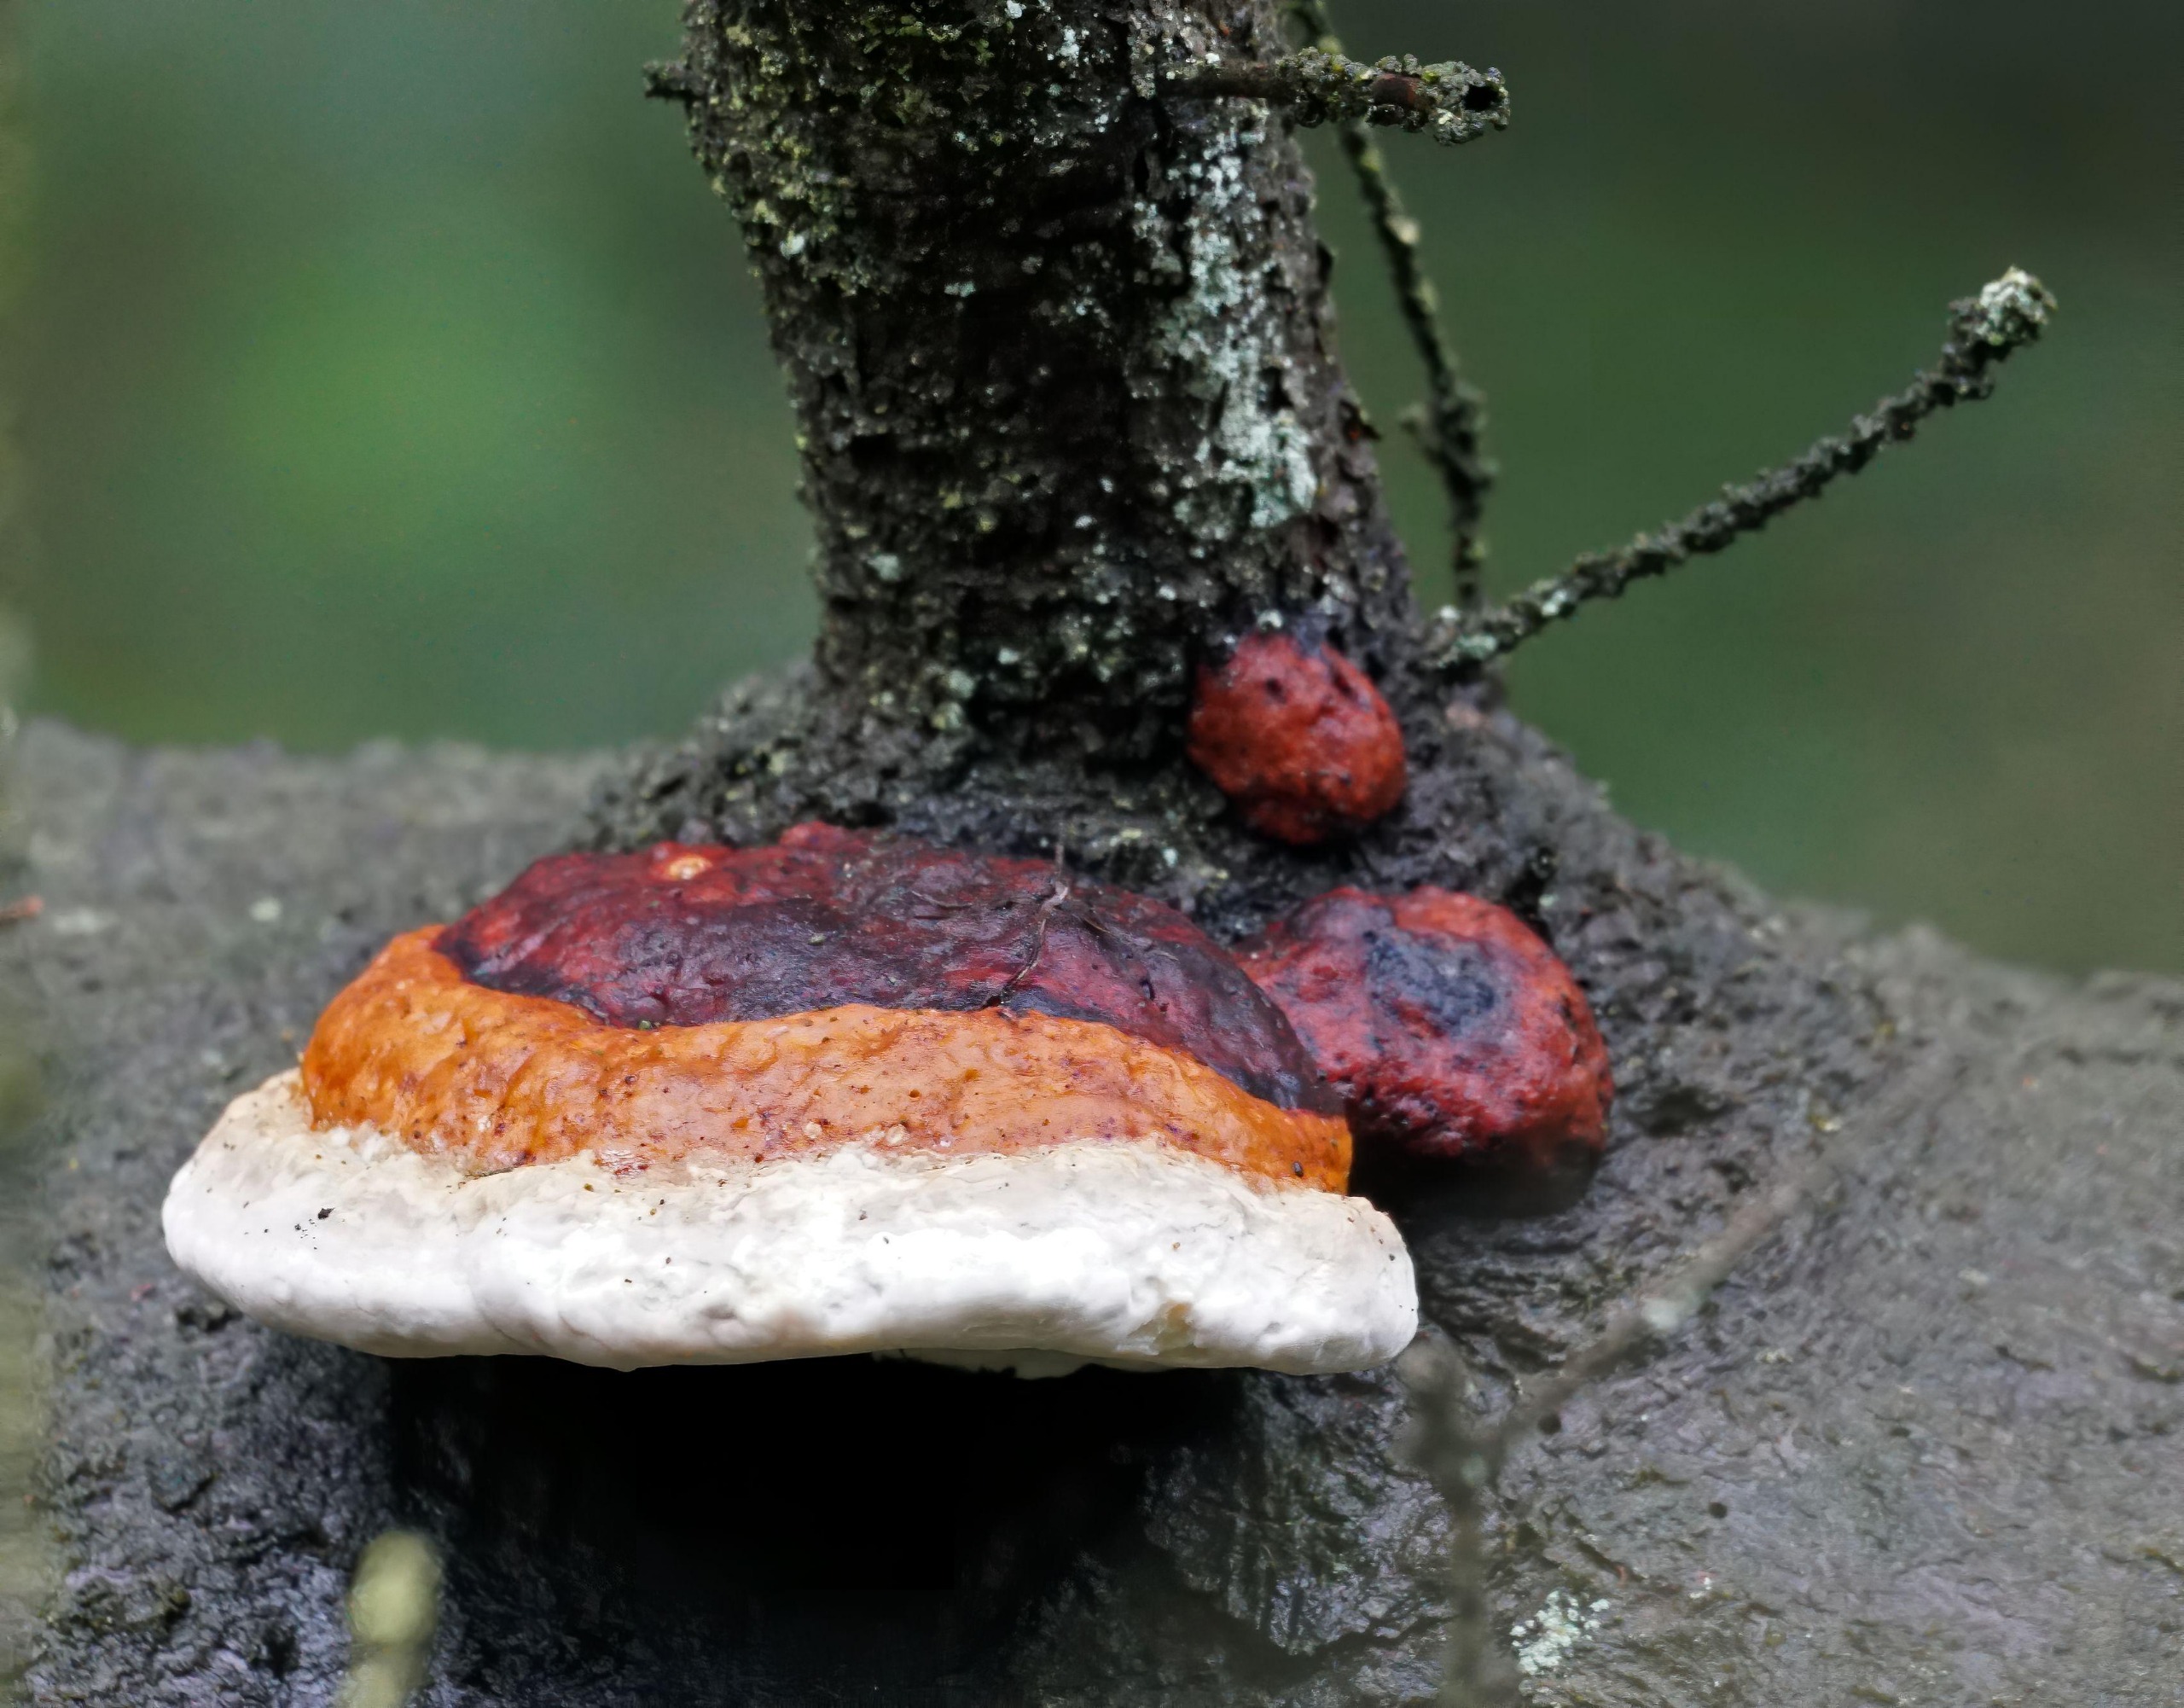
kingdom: Fungi
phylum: Basidiomycota
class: Agaricomycetes
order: Polyporales
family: Fomitopsidaceae
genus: Fomitopsis
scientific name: Fomitopsis pinicola
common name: Randbæltet hovporesvamp
